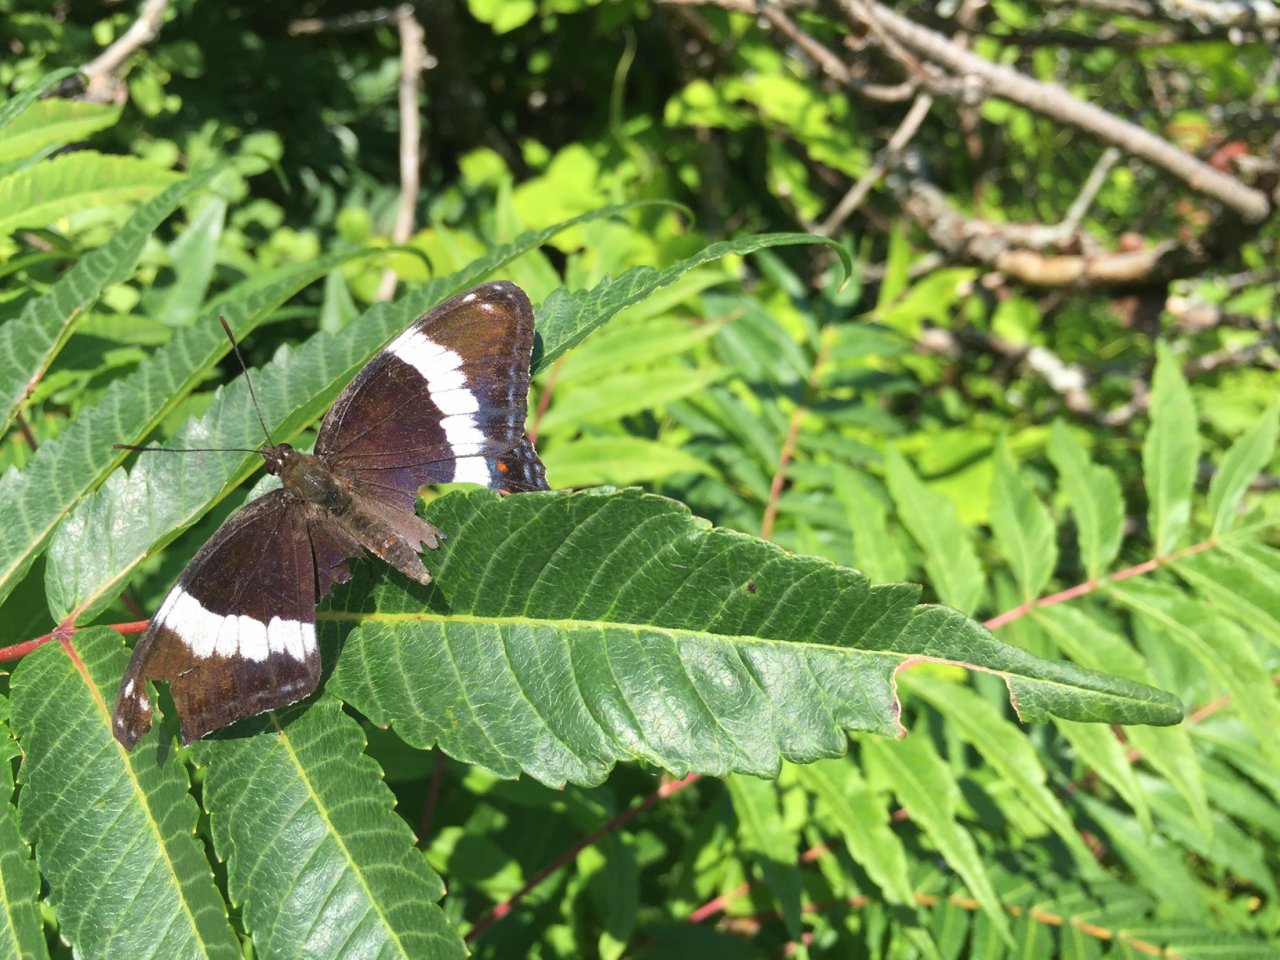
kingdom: Animalia
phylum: Arthropoda
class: Insecta
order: Lepidoptera
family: Nymphalidae
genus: Limenitis
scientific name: Limenitis arthemis
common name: Red-spotted Admiral
